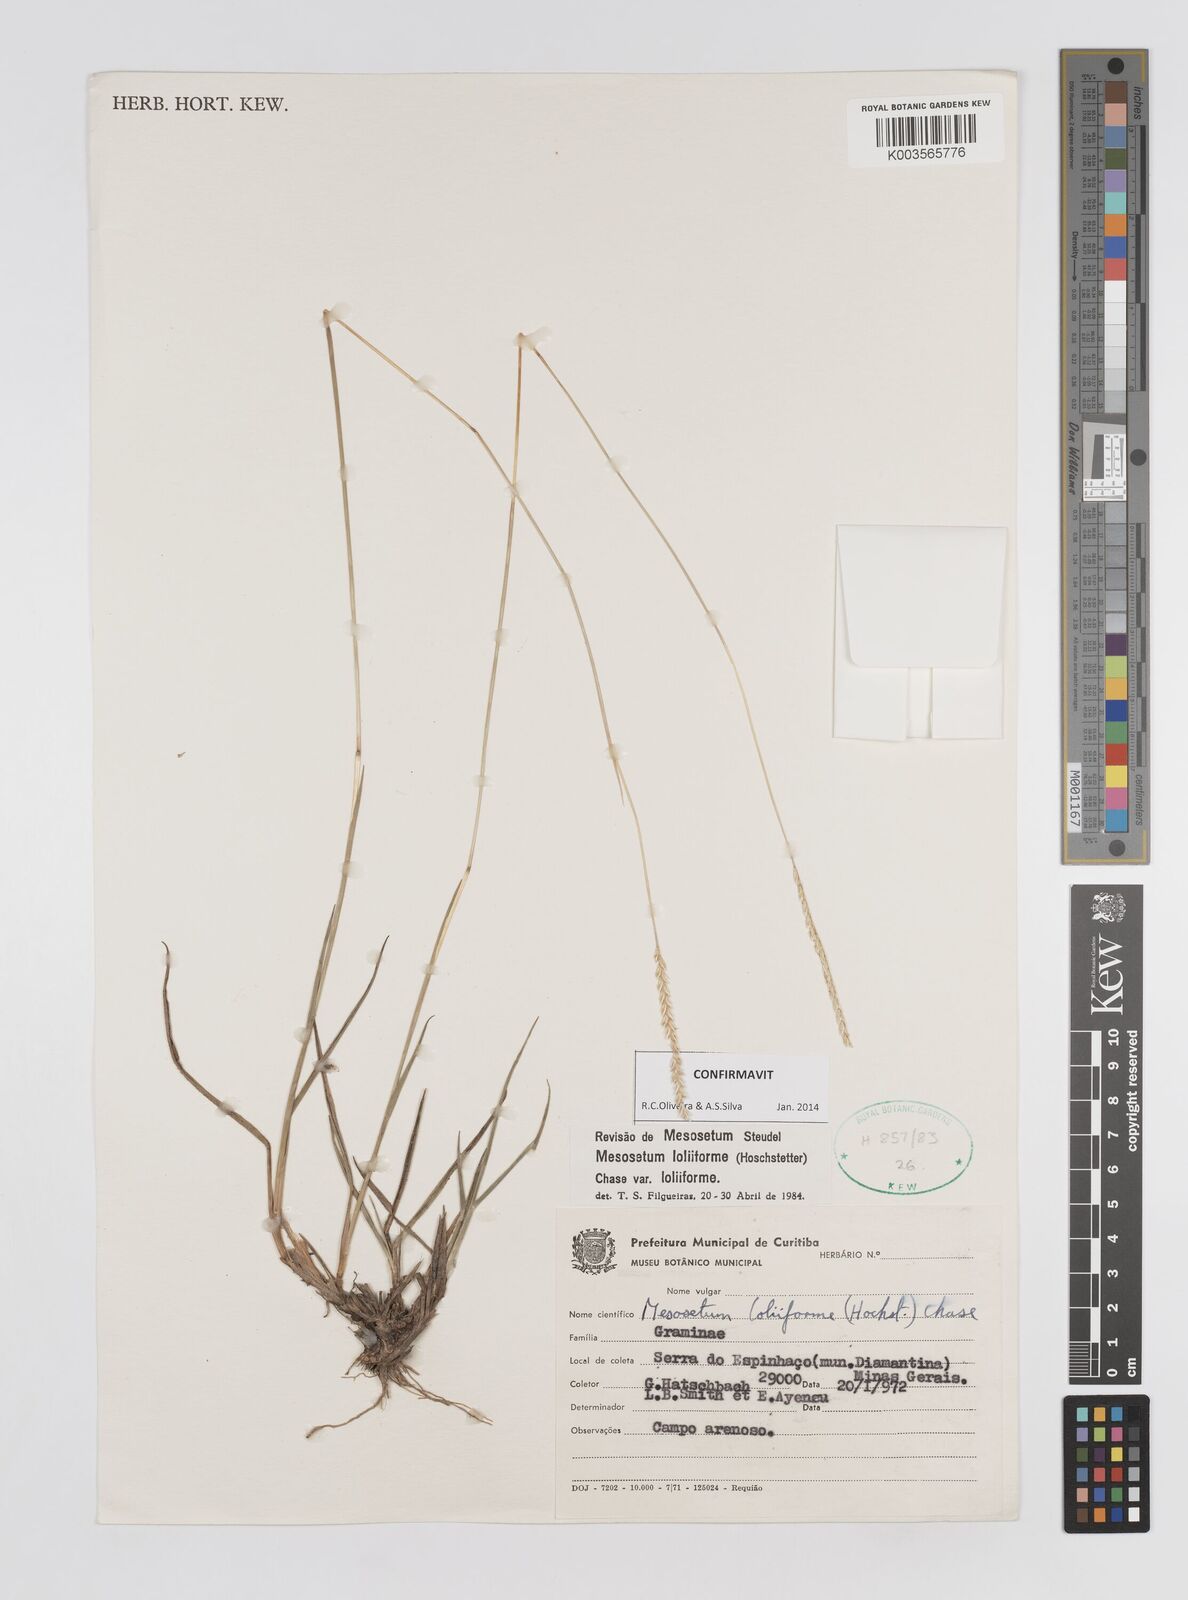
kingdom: Plantae
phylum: Tracheophyta
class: Liliopsida
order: Poales
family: Poaceae
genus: Mesosetum
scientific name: Mesosetum loliiforme
